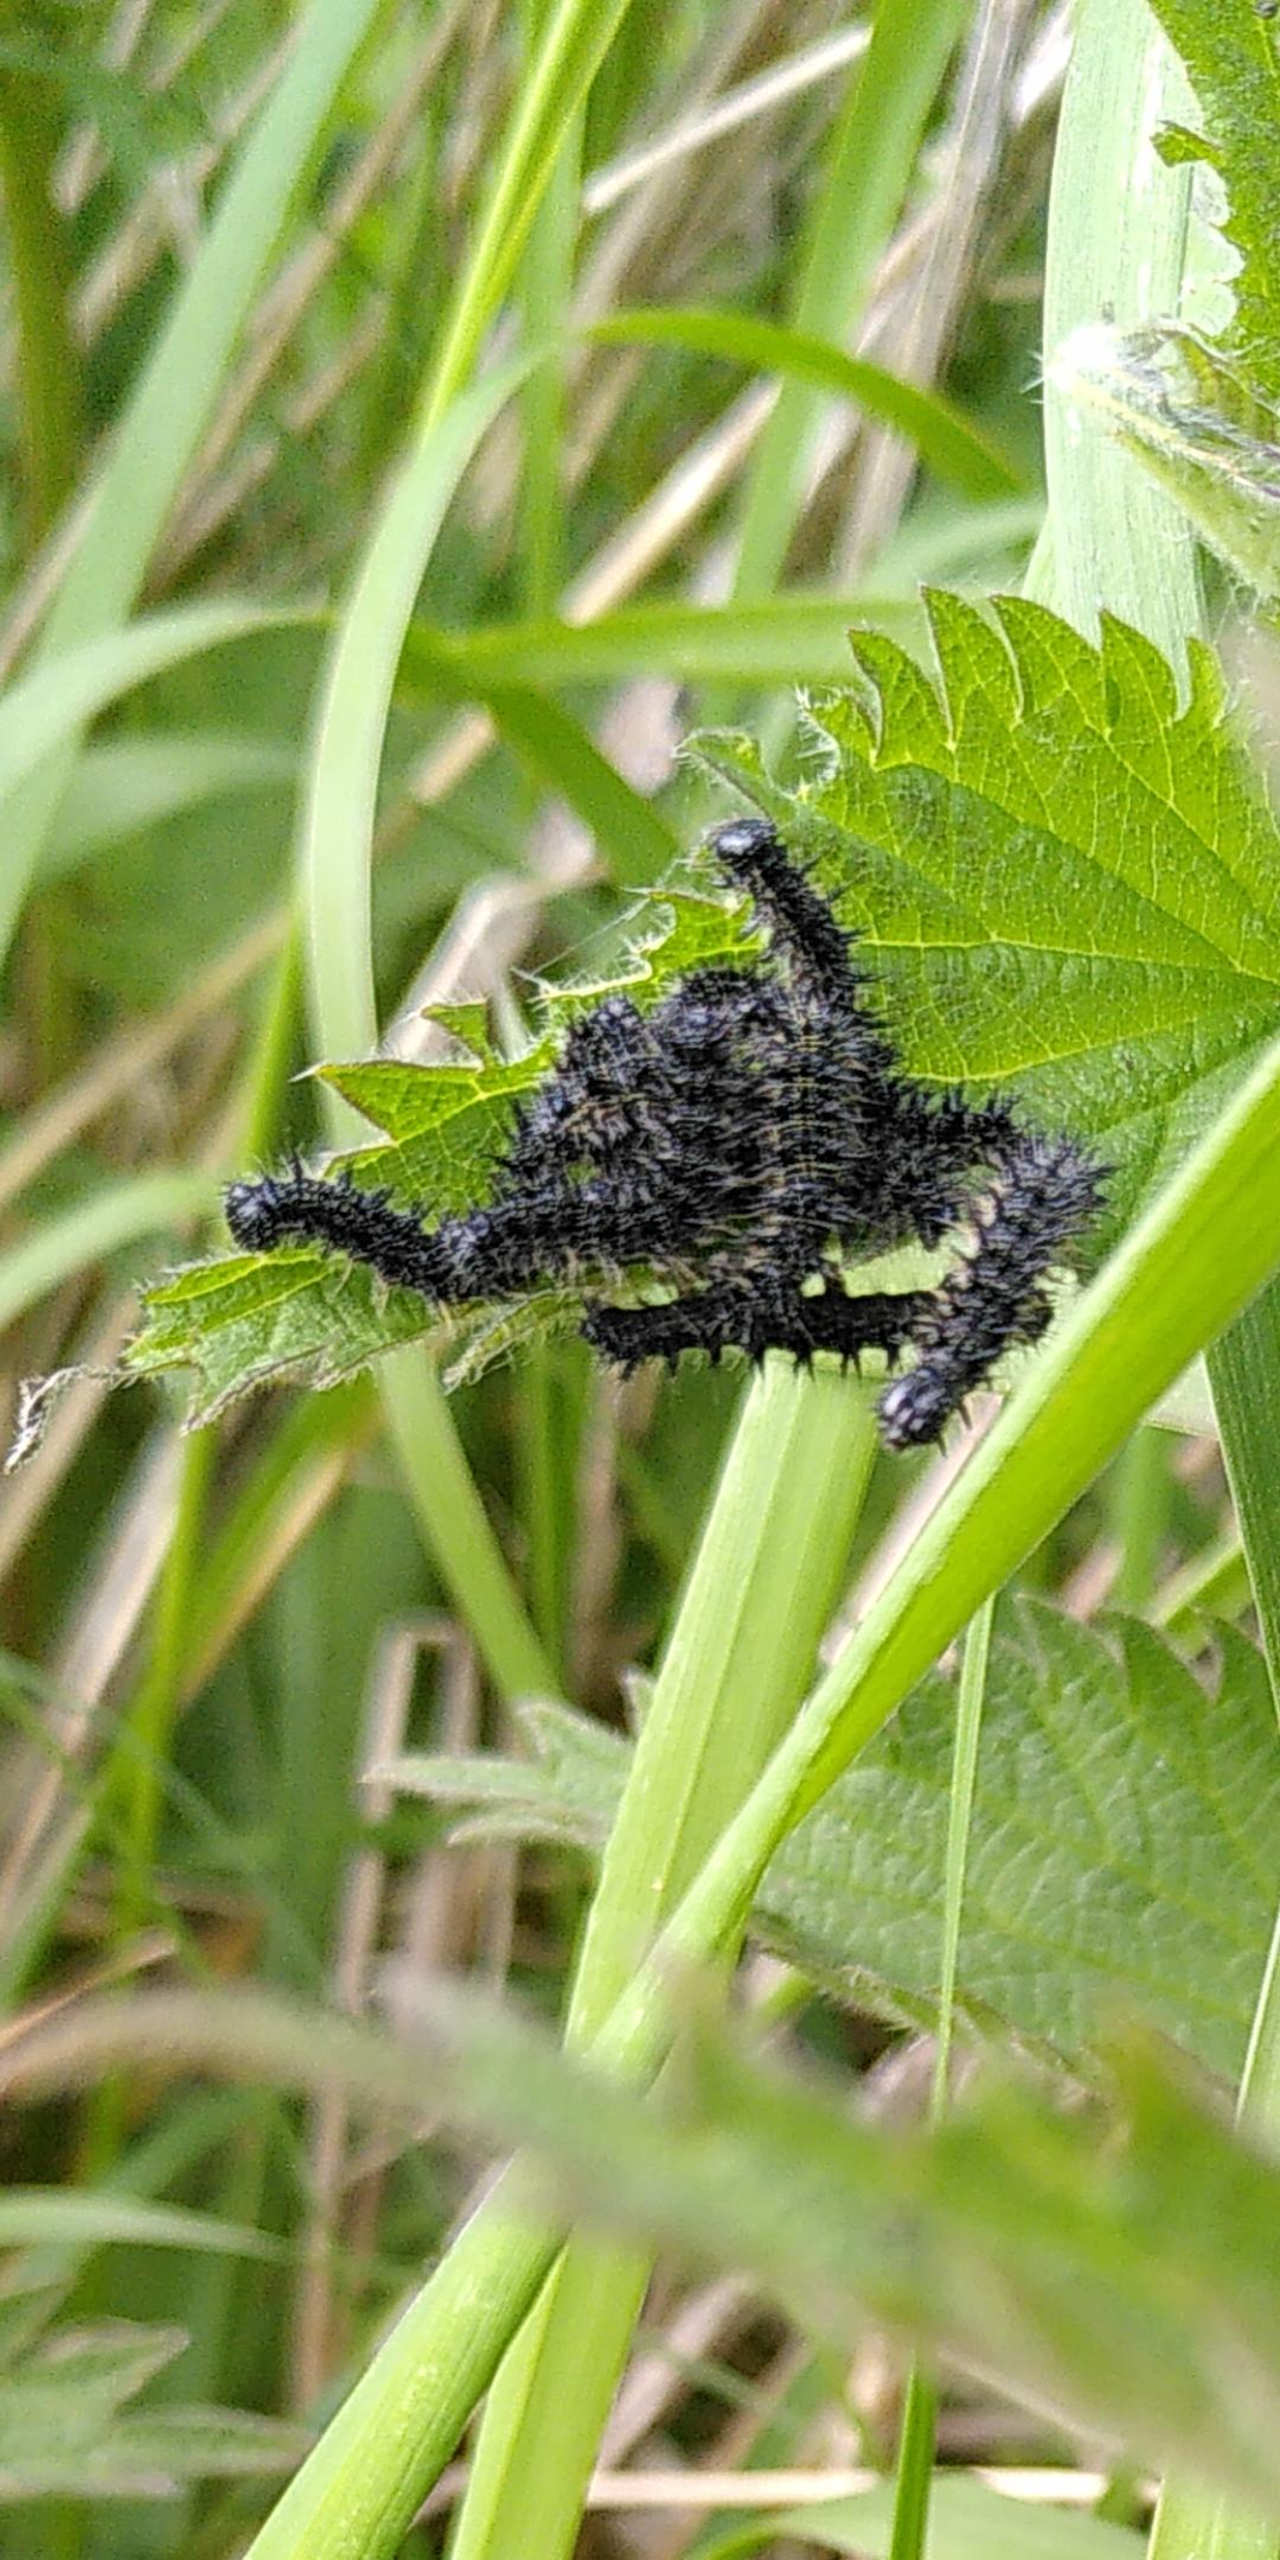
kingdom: Animalia
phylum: Arthropoda
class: Insecta
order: Lepidoptera
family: Nymphalidae
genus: Aglais
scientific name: Aglais io
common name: Dagpåfugleøje
